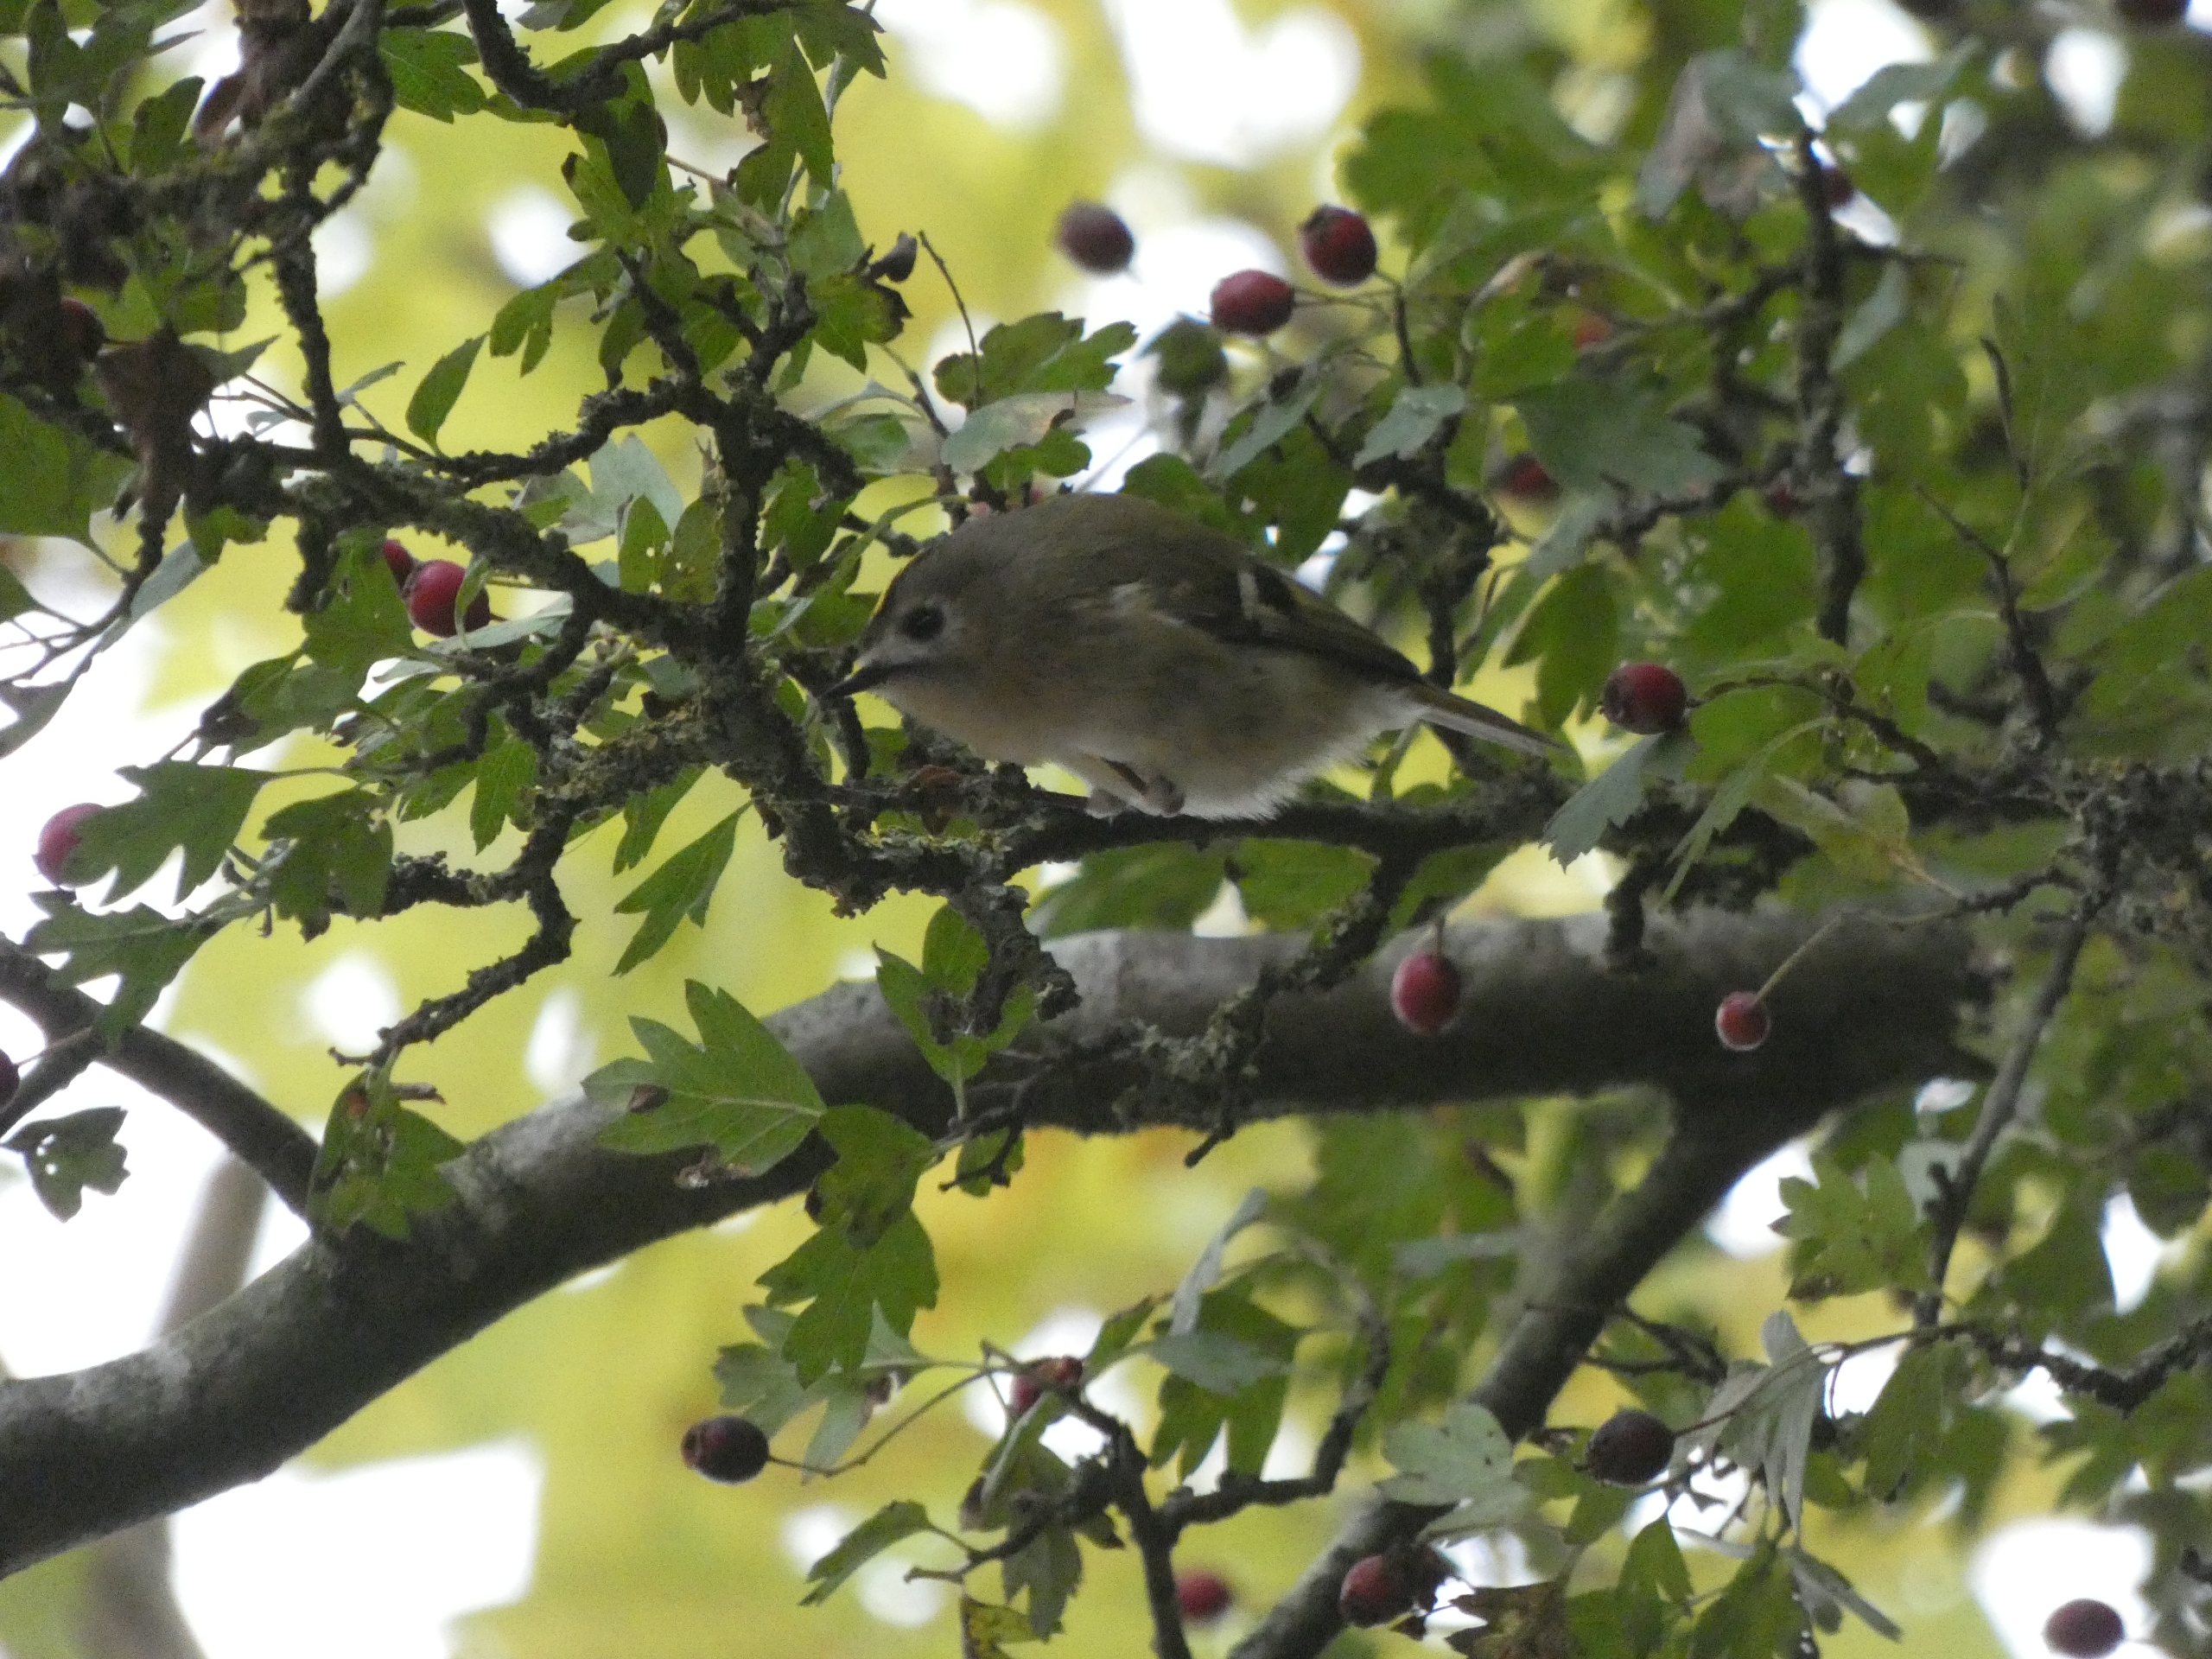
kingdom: Animalia
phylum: Chordata
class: Aves
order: Passeriformes
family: Regulidae
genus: Regulus
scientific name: Regulus regulus
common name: Fuglekonge
